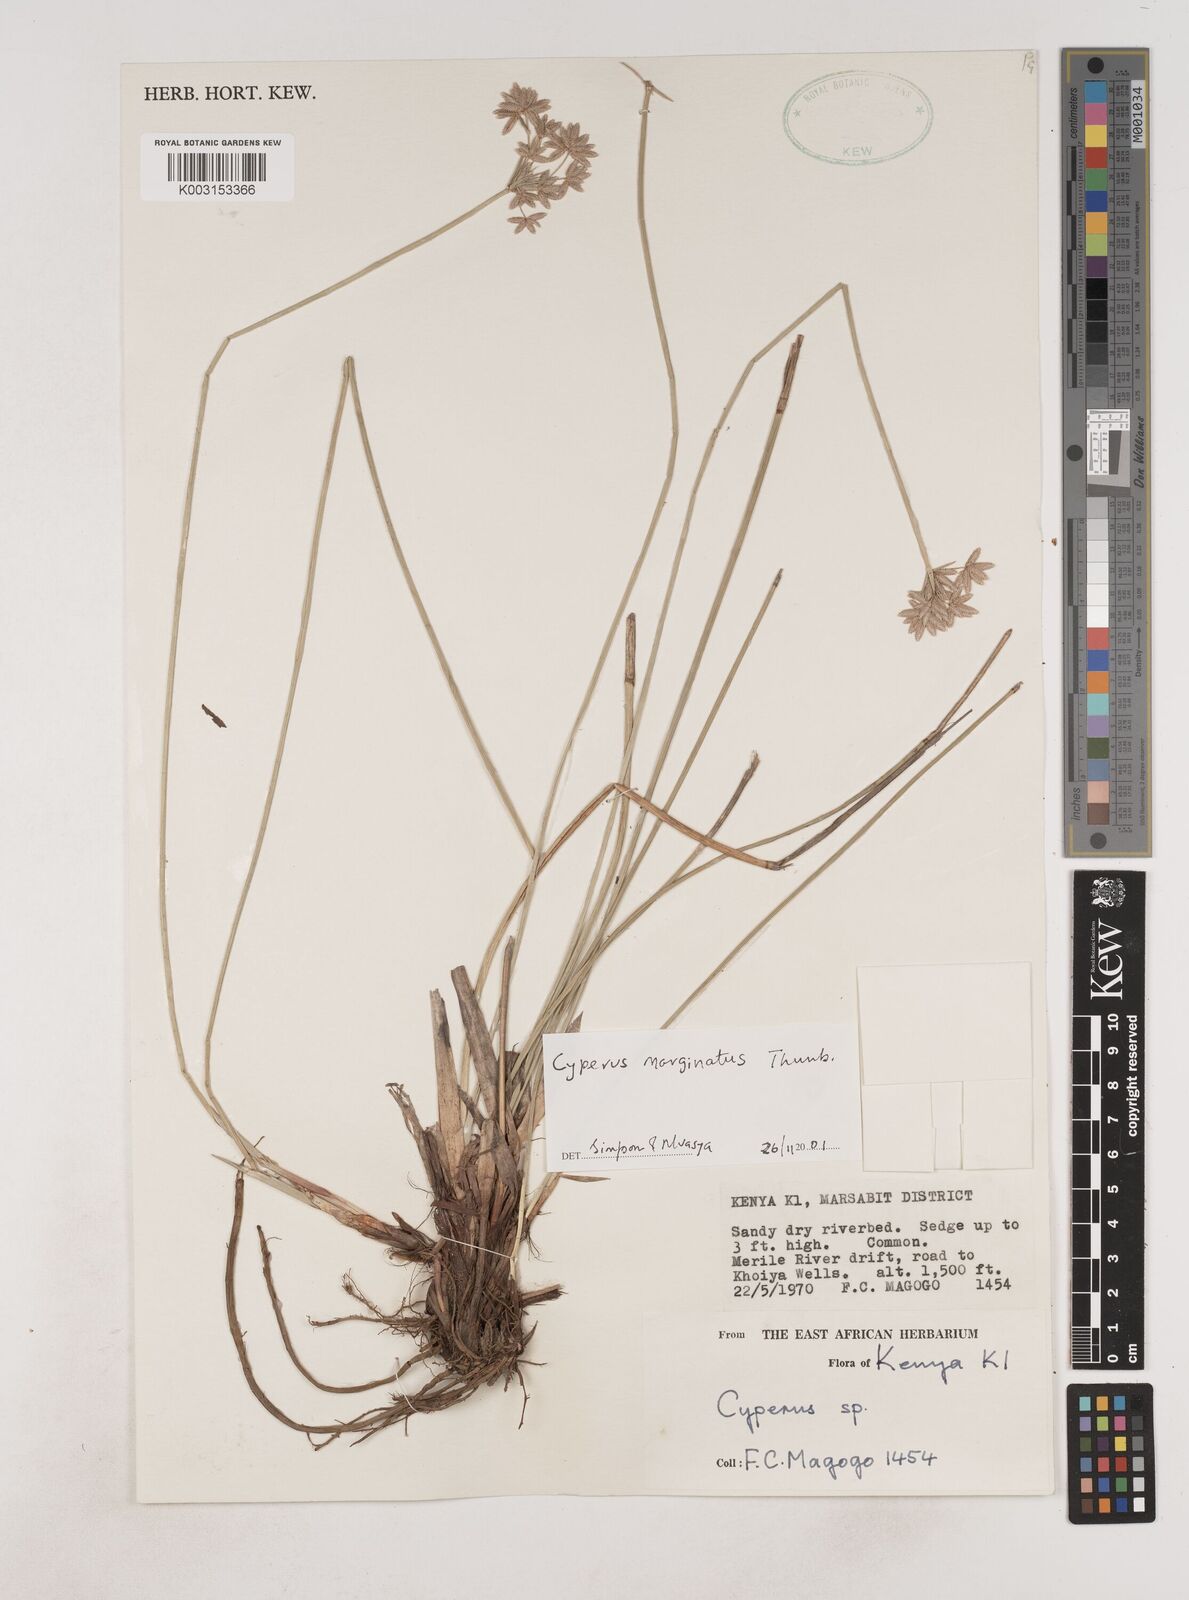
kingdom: Plantae
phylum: Tracheophyta
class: Liliopsida
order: Poales
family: Cyperaceae
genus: Cyperus
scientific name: Cyperus marginatus
